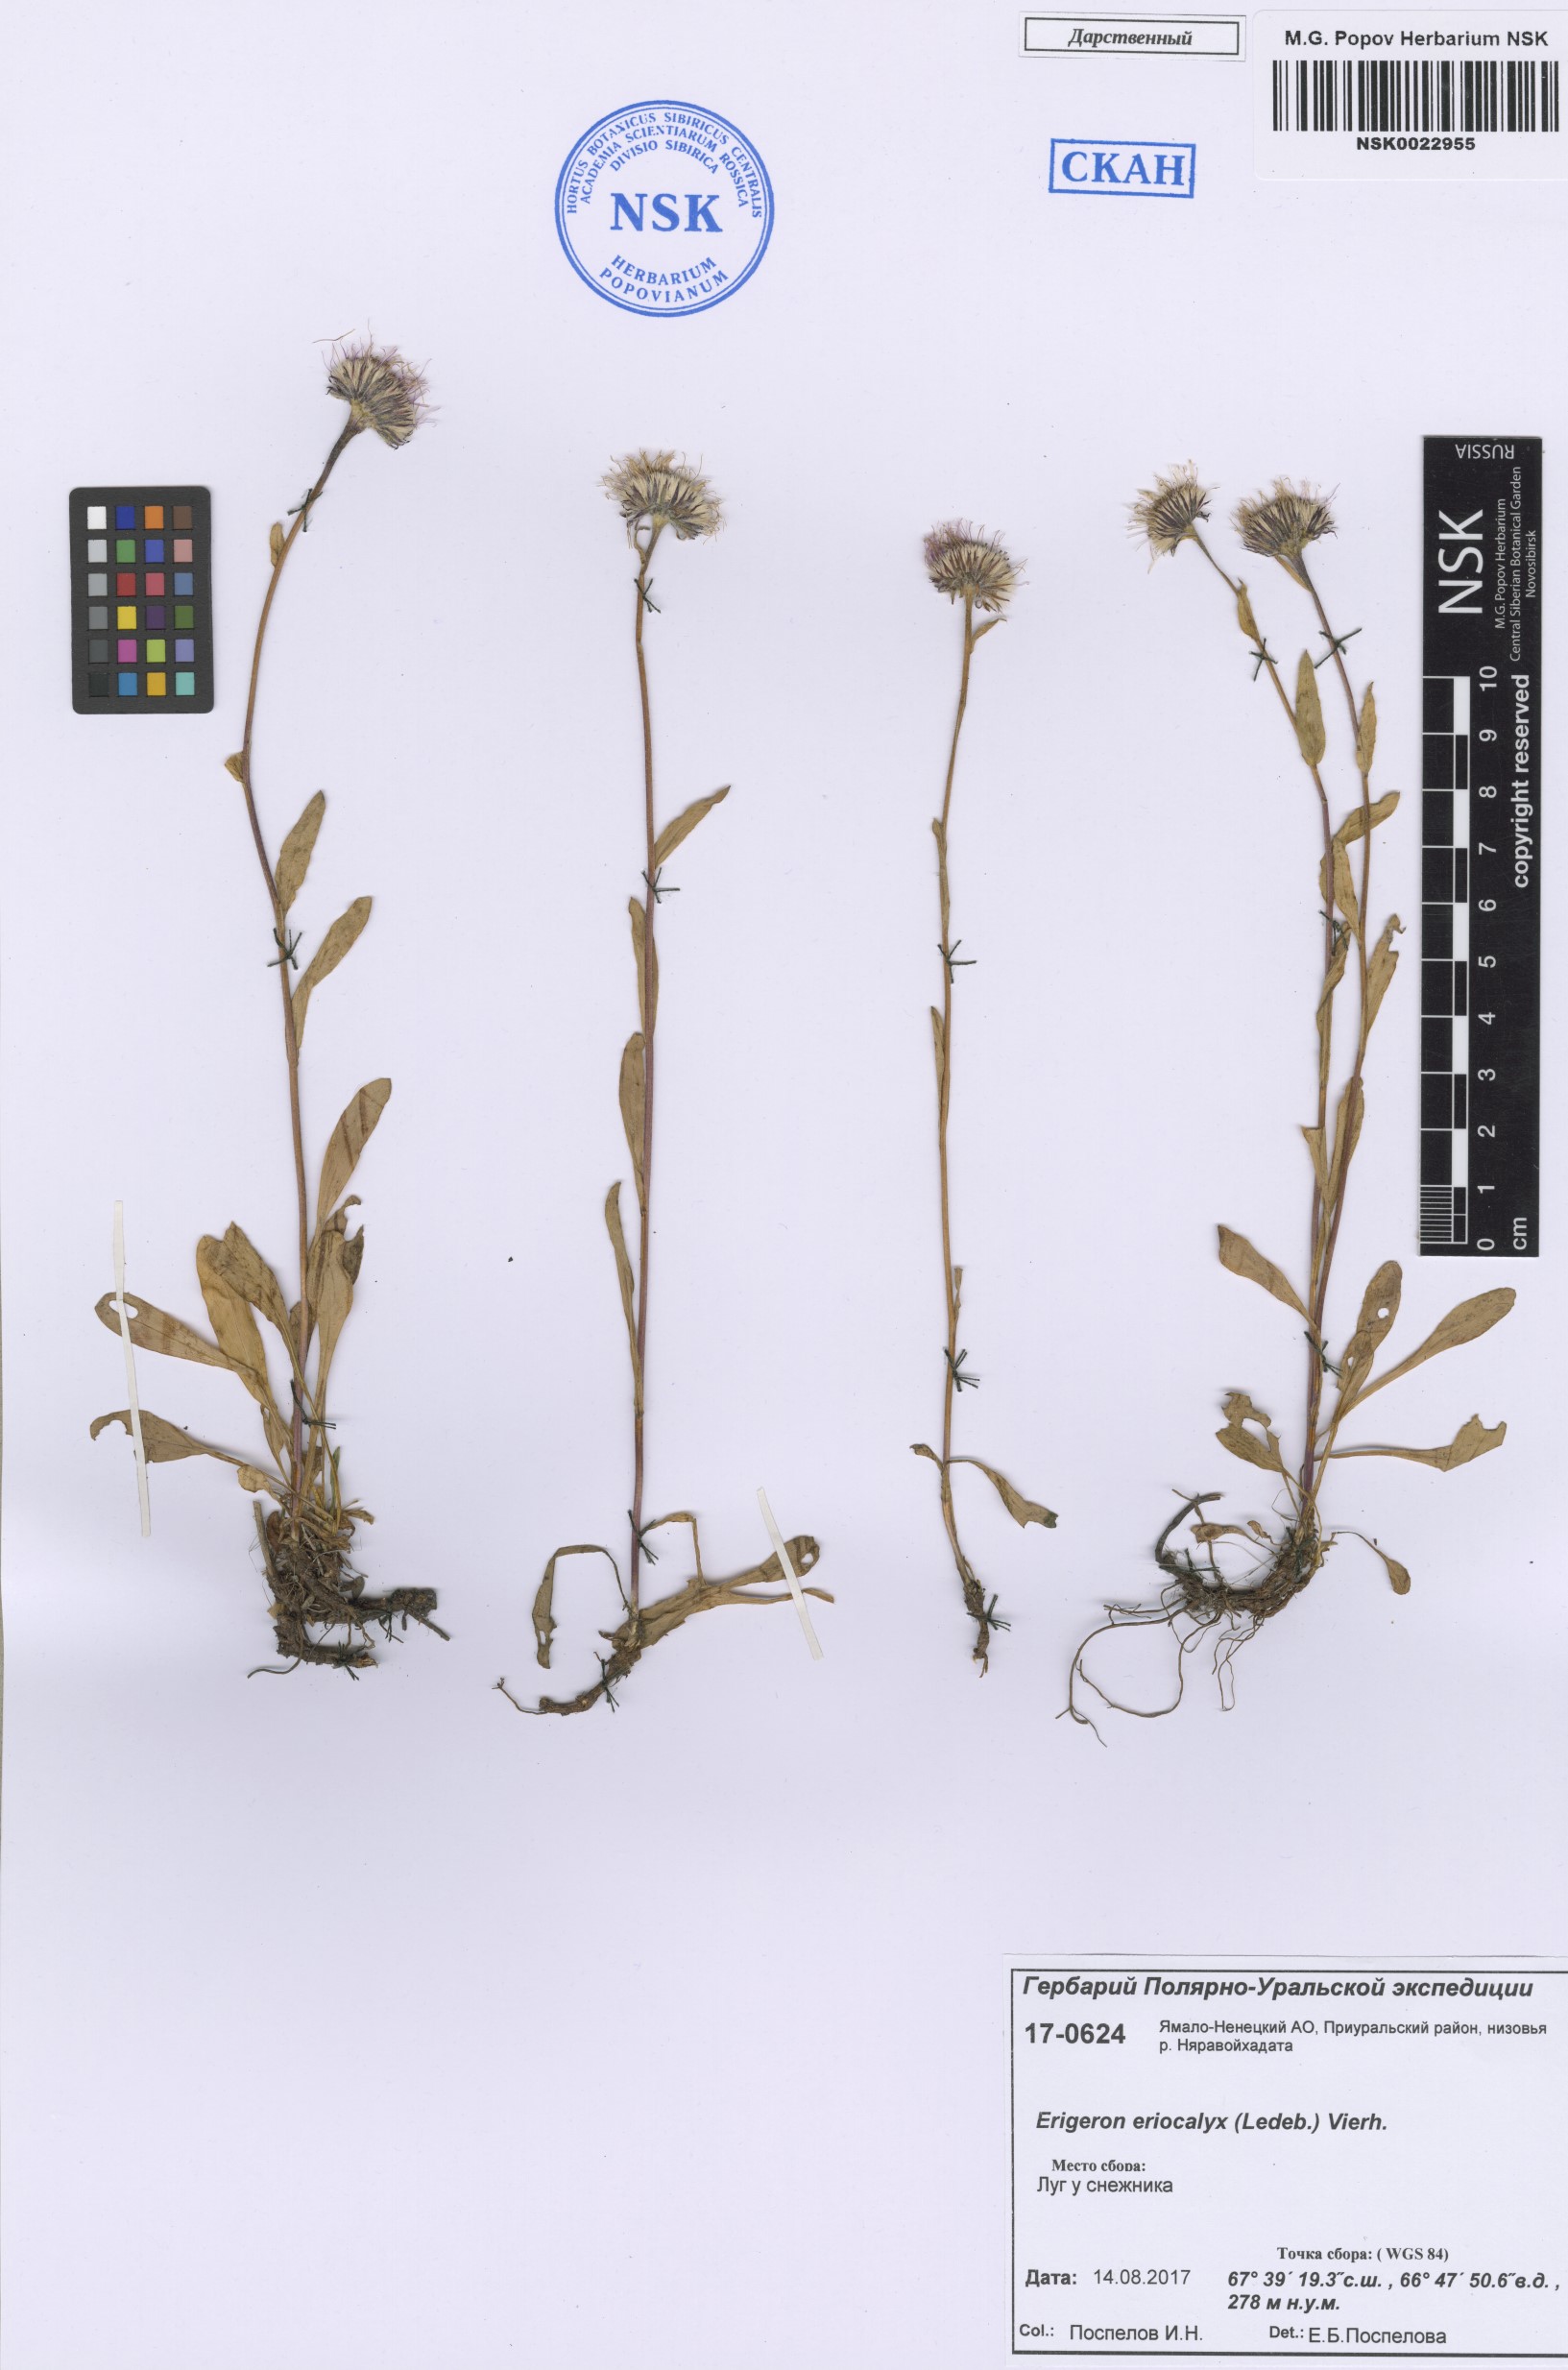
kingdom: Plantae
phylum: Tracheophyta
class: Magnoliopsida
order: Asterales
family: Asteraceae
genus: Erigeron
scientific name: Erigeron eriocalyx
